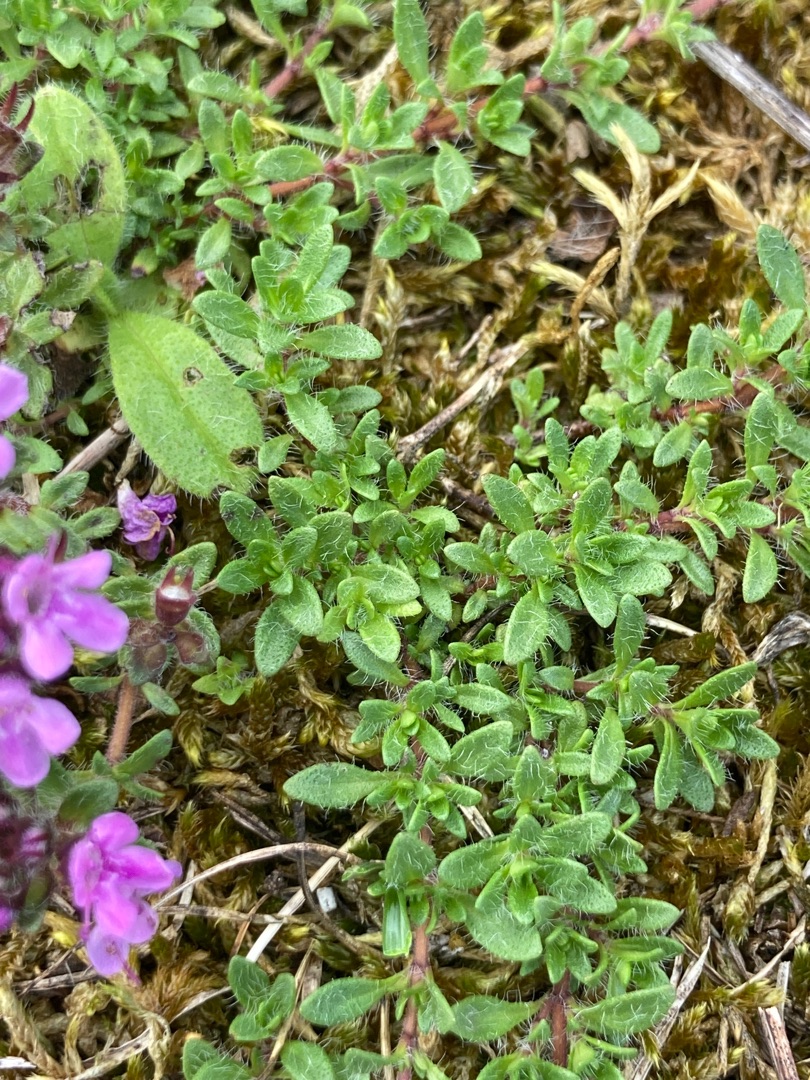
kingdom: Plantae
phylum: Tracheophyta
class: Magnoliopsida
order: Lamiales
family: Lamiaceae
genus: Thymus
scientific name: Thymus serpyllum
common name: Smalbladet timian
